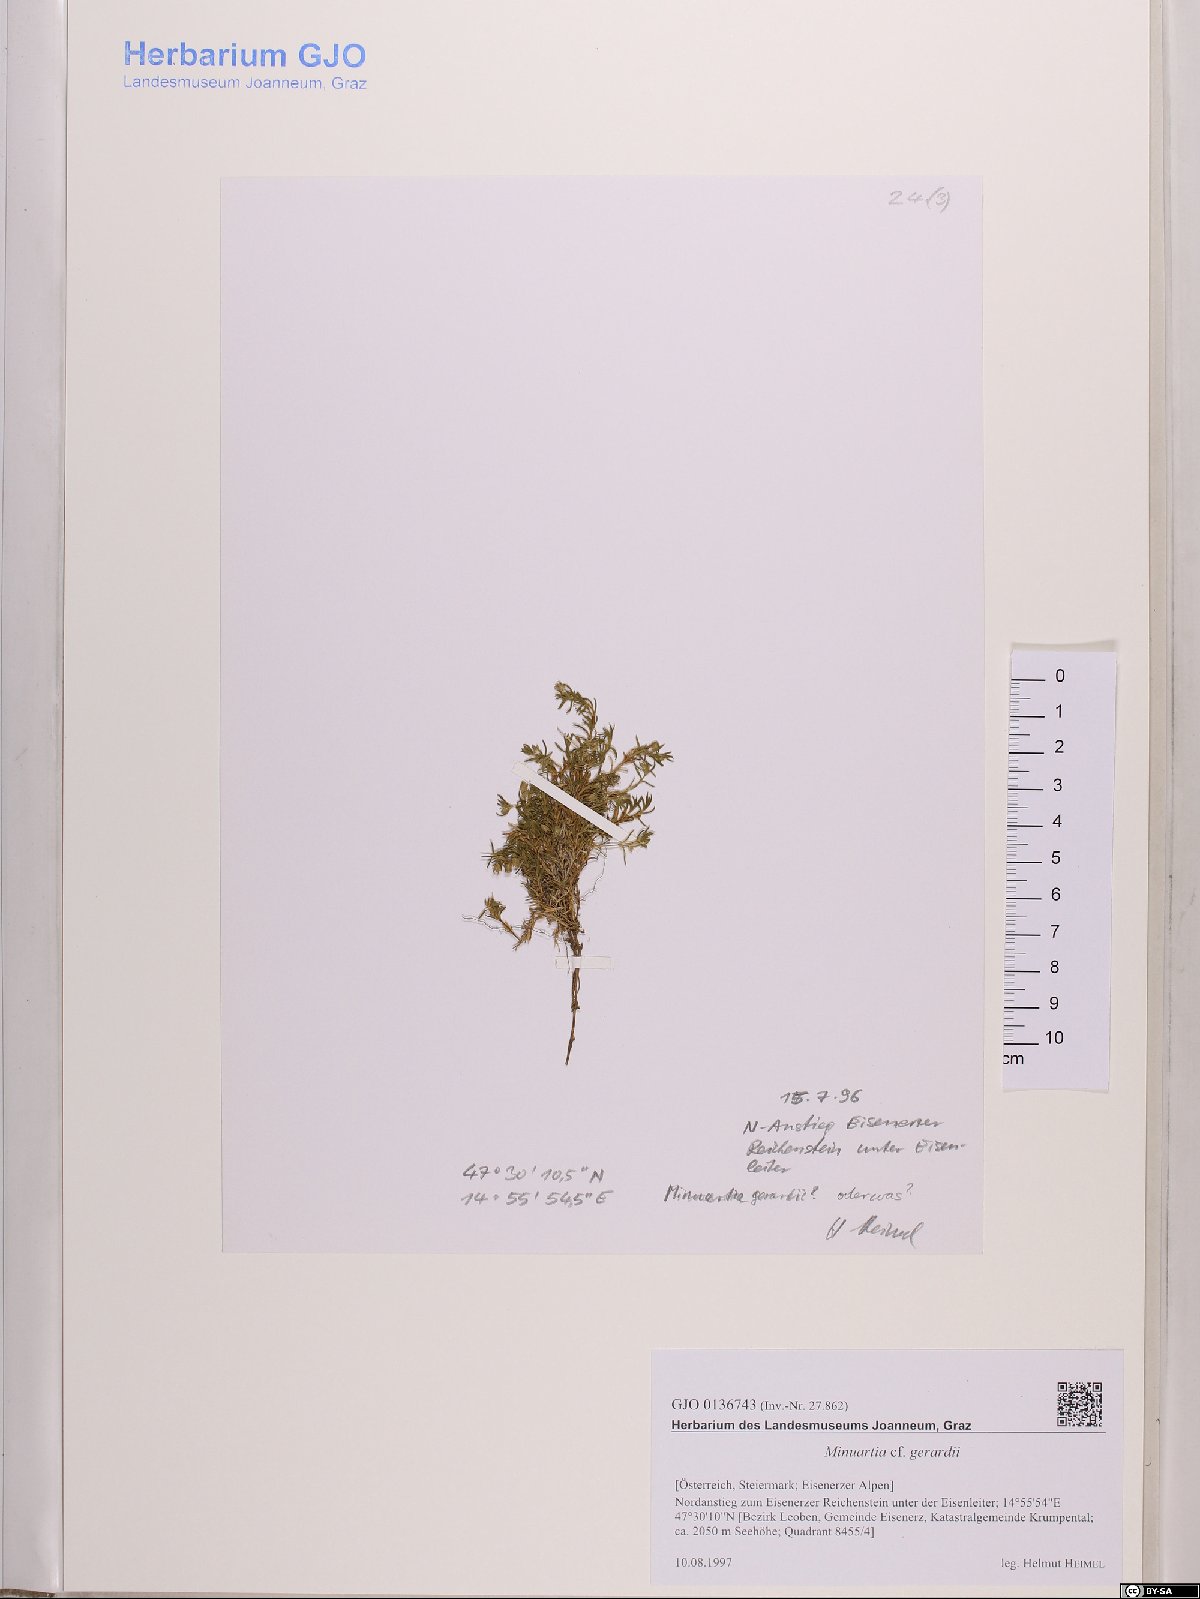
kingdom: Plantae
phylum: Tracheophyta
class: Magnoliopsida
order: Caryophyllales
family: Caryophyllaceae
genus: Sabulina
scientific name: Sabulina verna
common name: Spring sandwort
